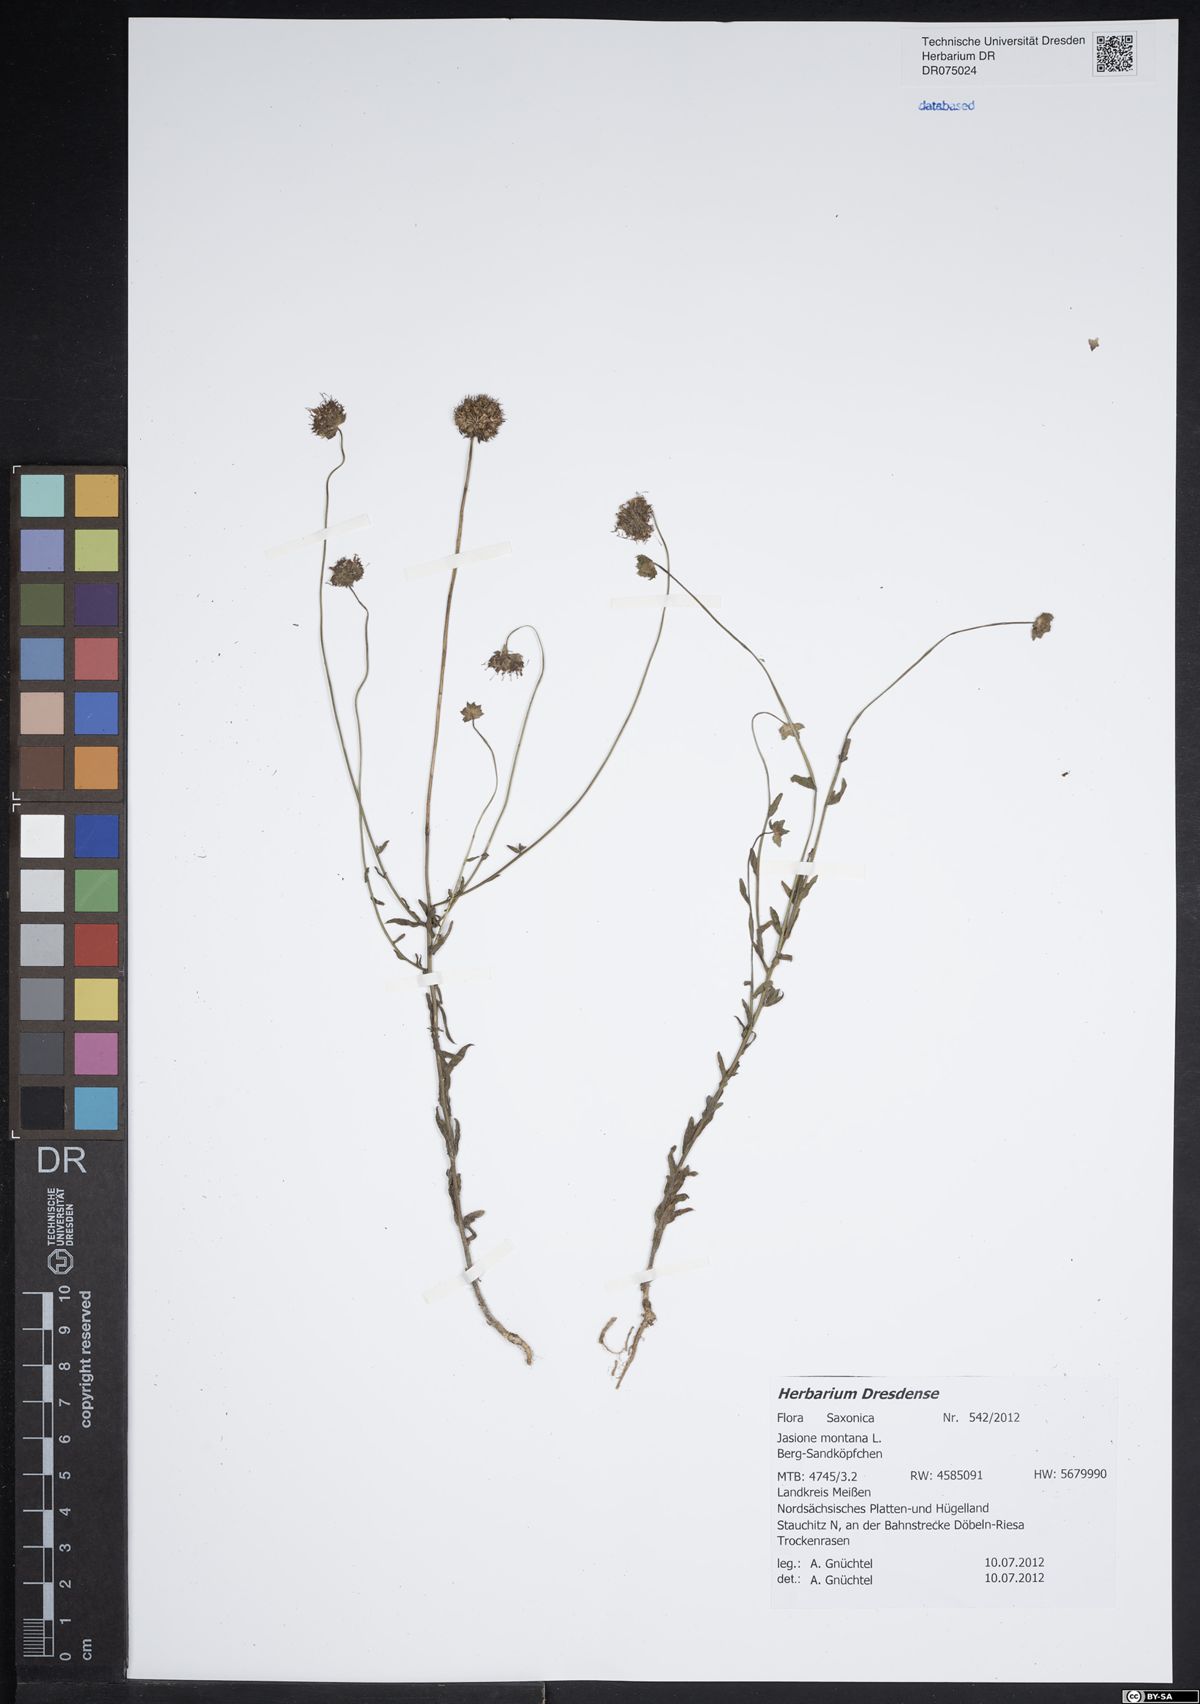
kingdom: Plantae
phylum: Tracheophyta
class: Magnoliopsida
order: Asterales
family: Campanulaceae
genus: Jasione
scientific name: Jasione montana
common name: Sheep's-bit
